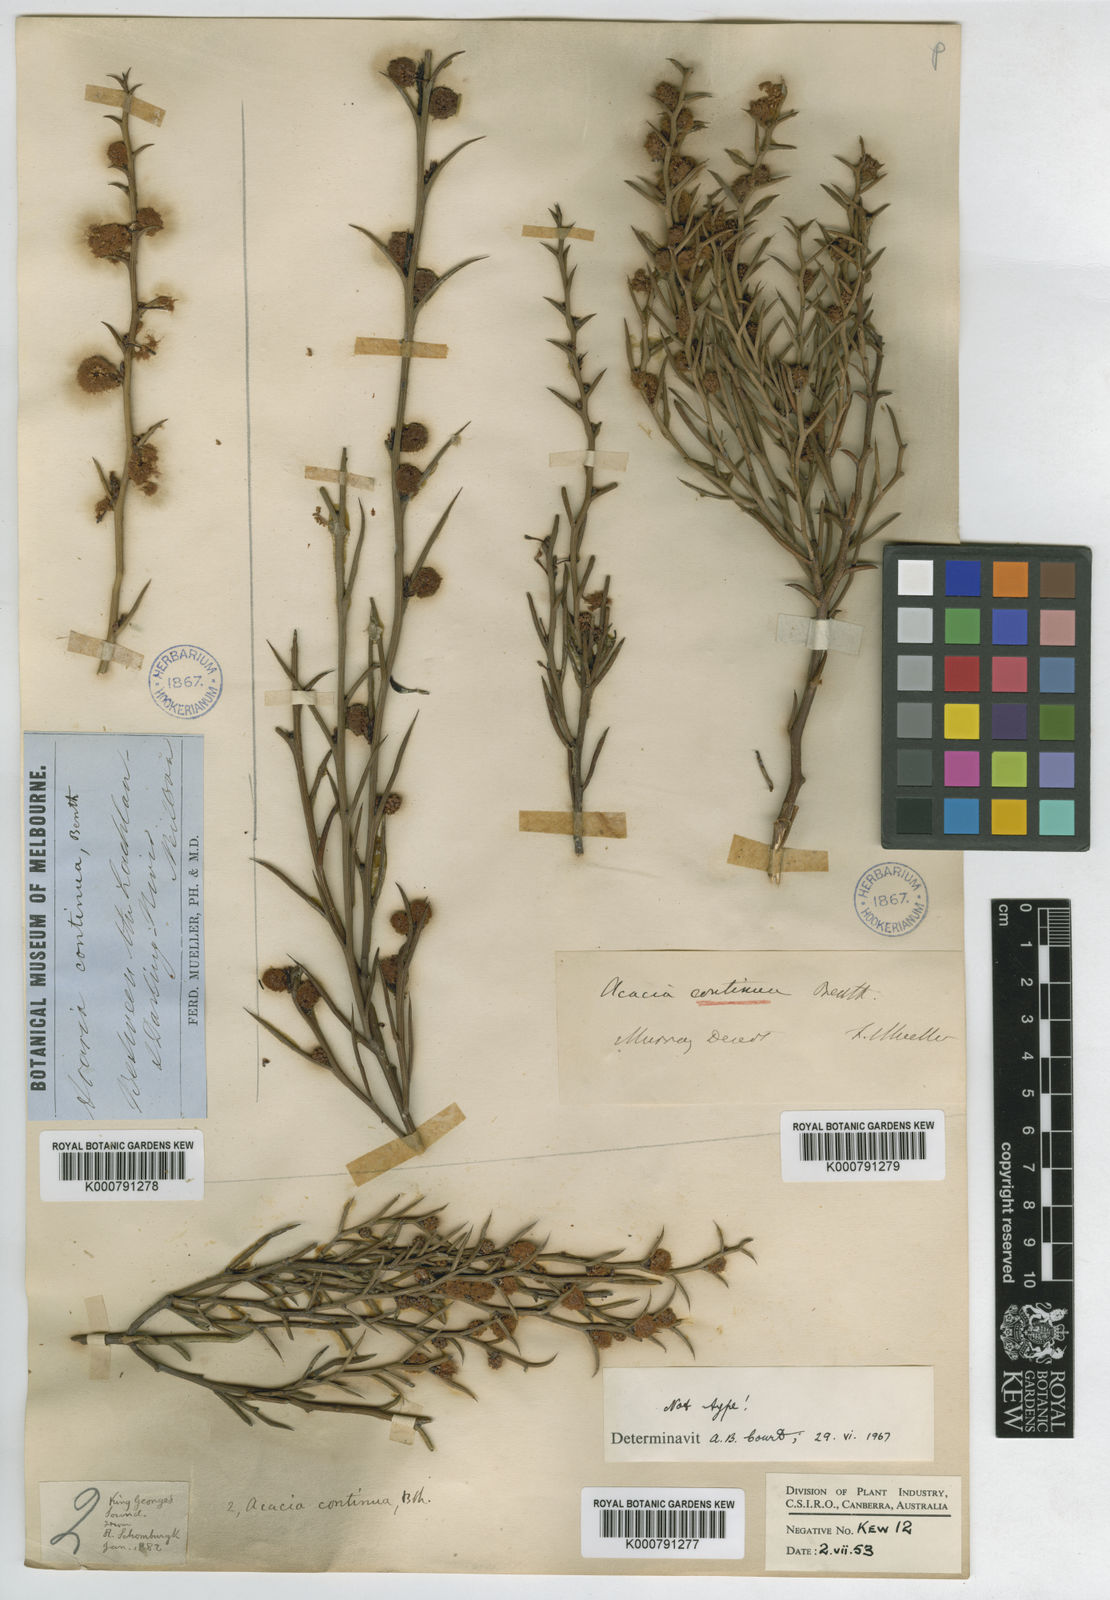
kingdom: Plantae
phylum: Tracheophyta
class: Magnoliopsida
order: Fabales
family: Fabaceae
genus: Acacia
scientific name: Acacia continua
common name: Thorn wattle
